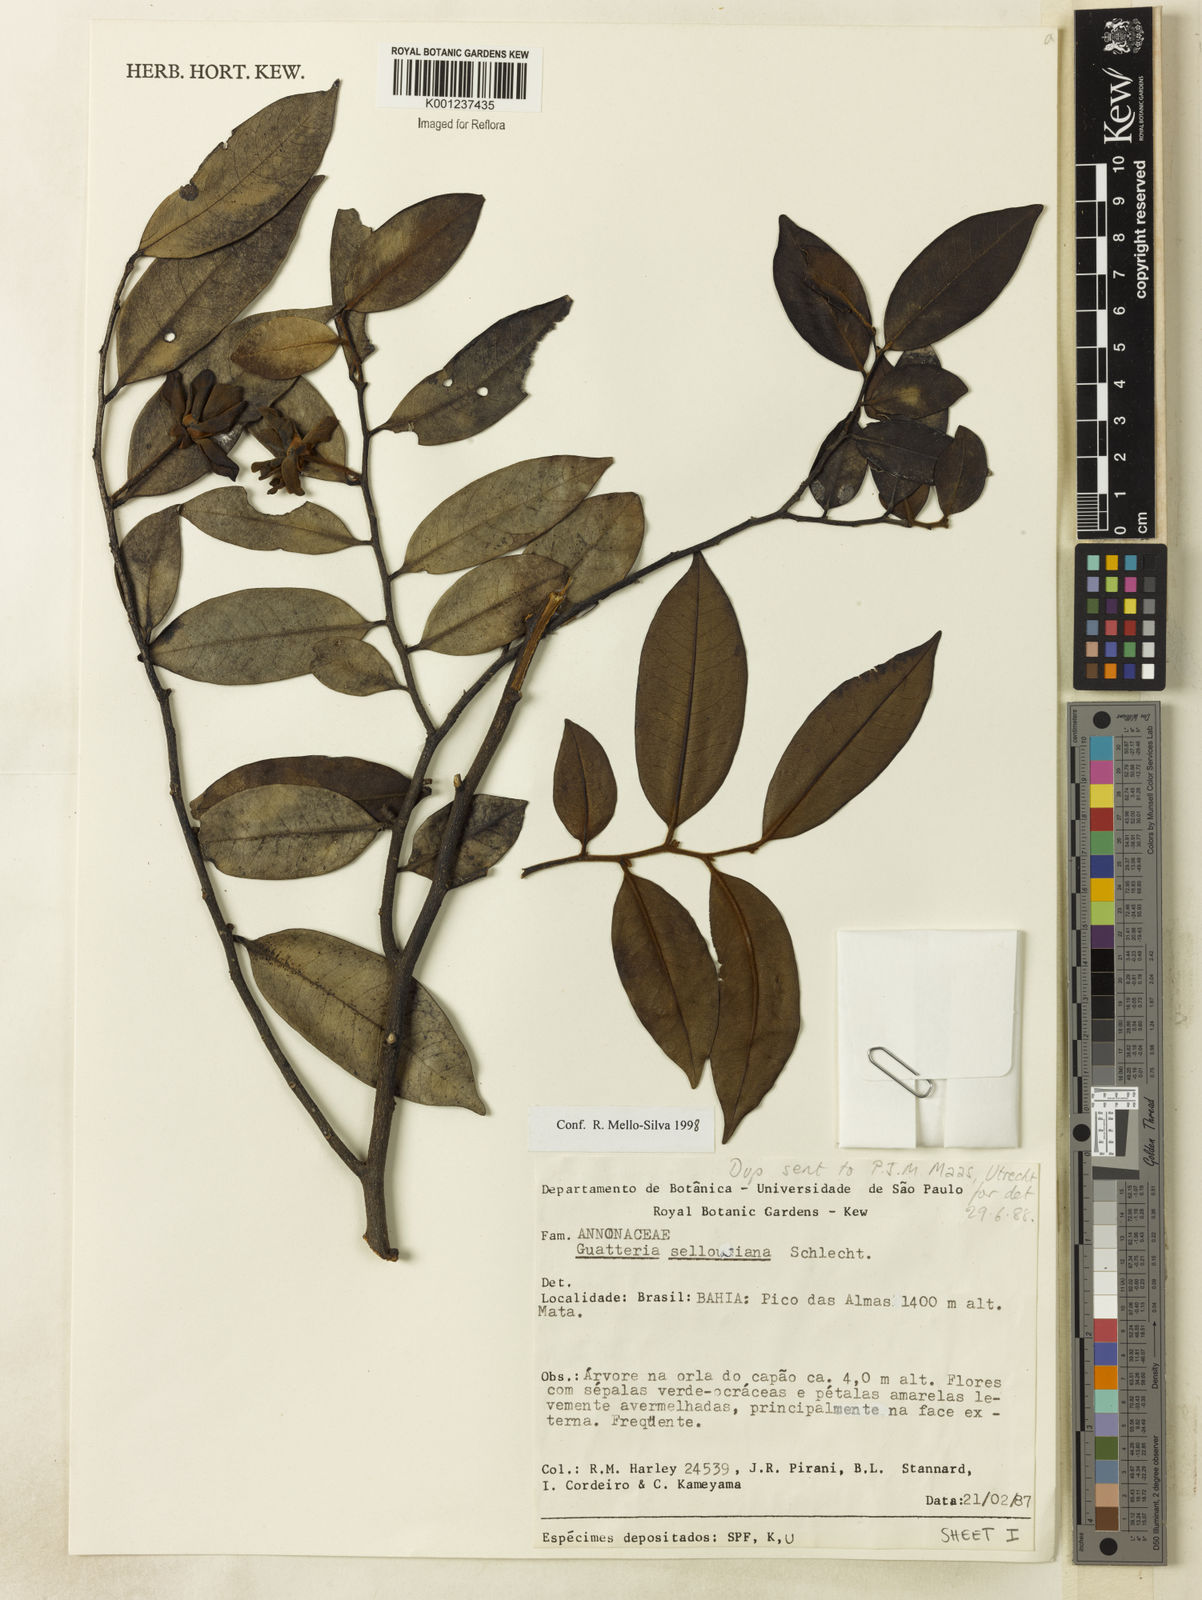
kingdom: Plantae
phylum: Tracheophyta
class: Magnoliopsida
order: Magnoliales
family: Annonaceae
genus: Guatteria
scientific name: Guatteria sellowiana
